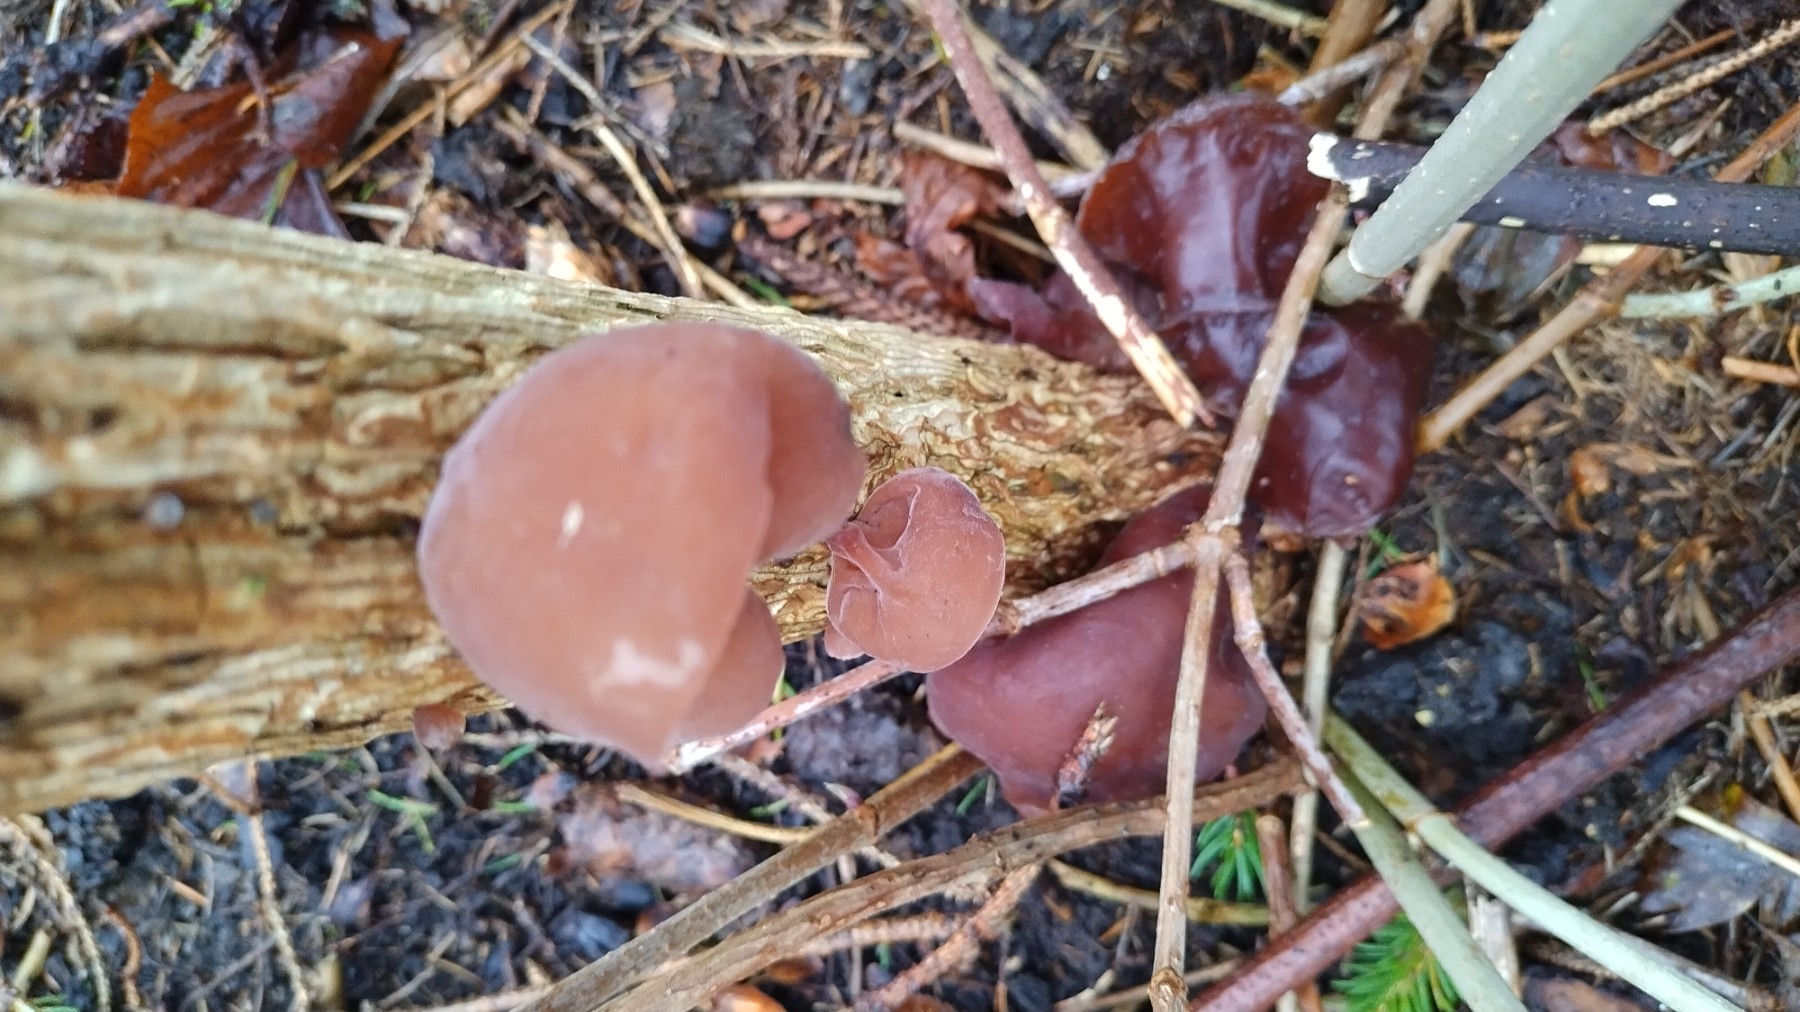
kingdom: Fungi
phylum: Basidiomycota
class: Agaricomycetes
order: Auriculariales
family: Auriculariaceae
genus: Auricularia
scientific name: Auricularia auricula-judae
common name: almindelig judasøre
